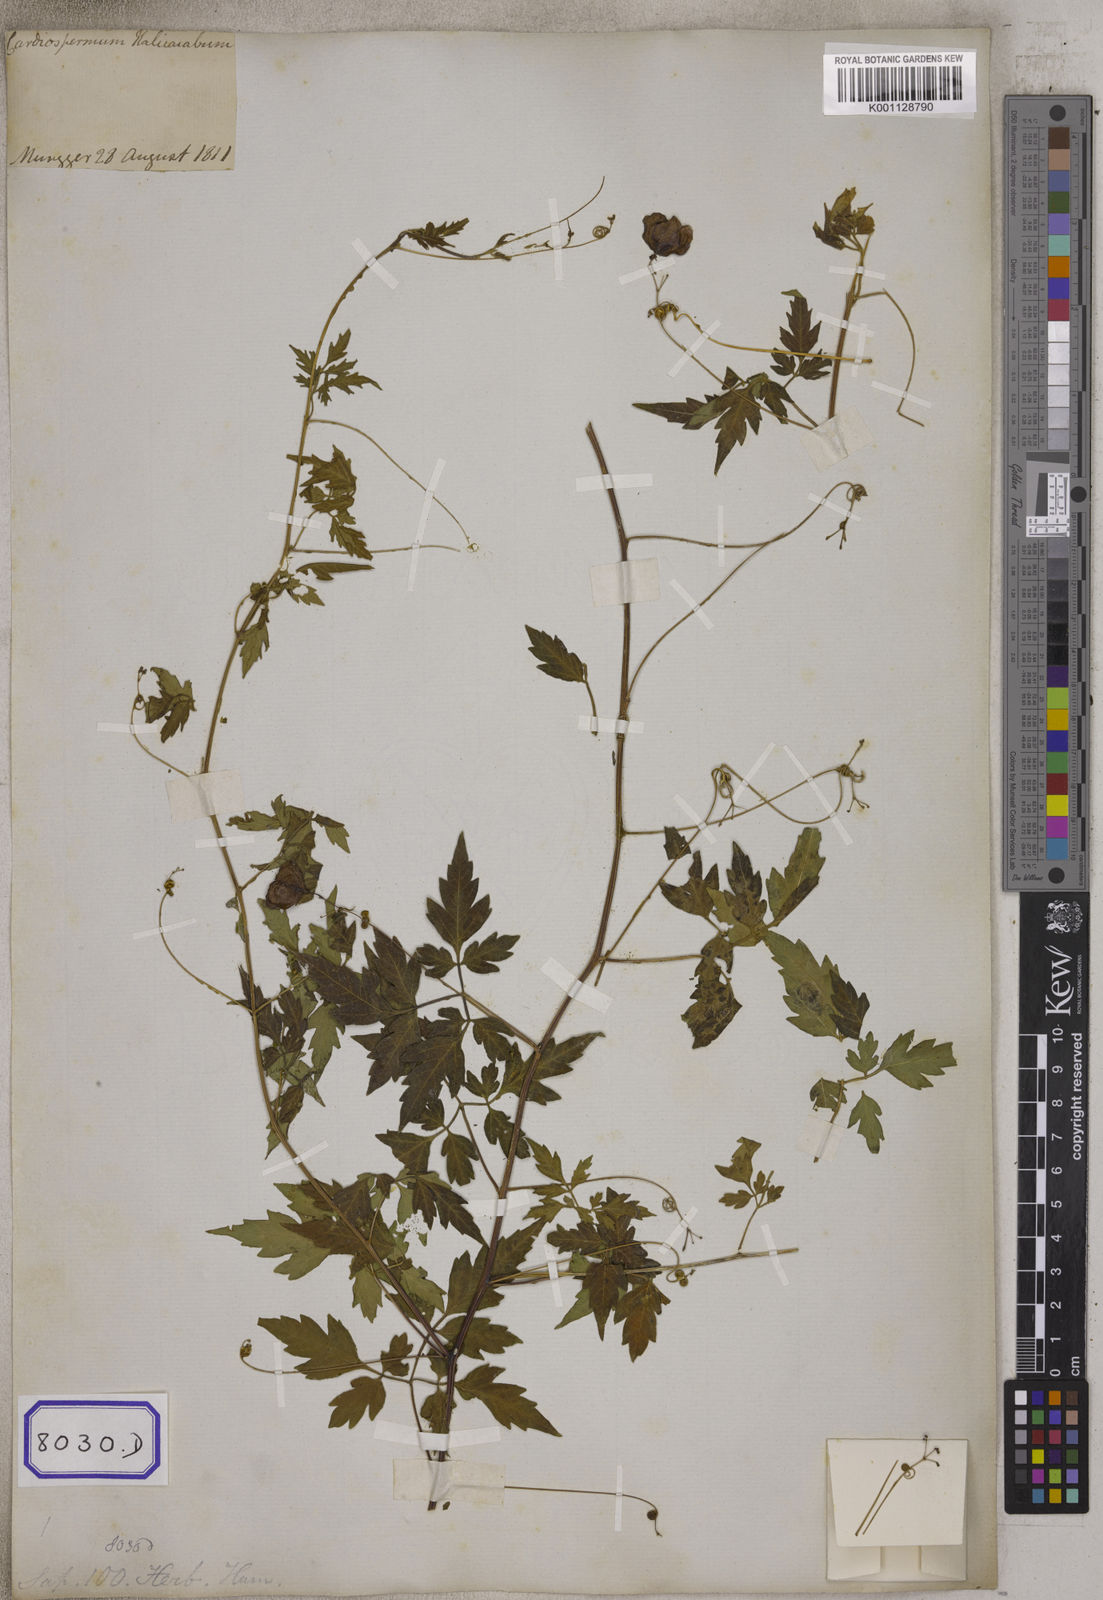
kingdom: Plantae
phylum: Tracheophyta
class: Magnoliopsida
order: Sapindales
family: Sapindaceae
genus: Cardiospermum
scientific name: Cardiospermum halicacabum
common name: Balloon vine
